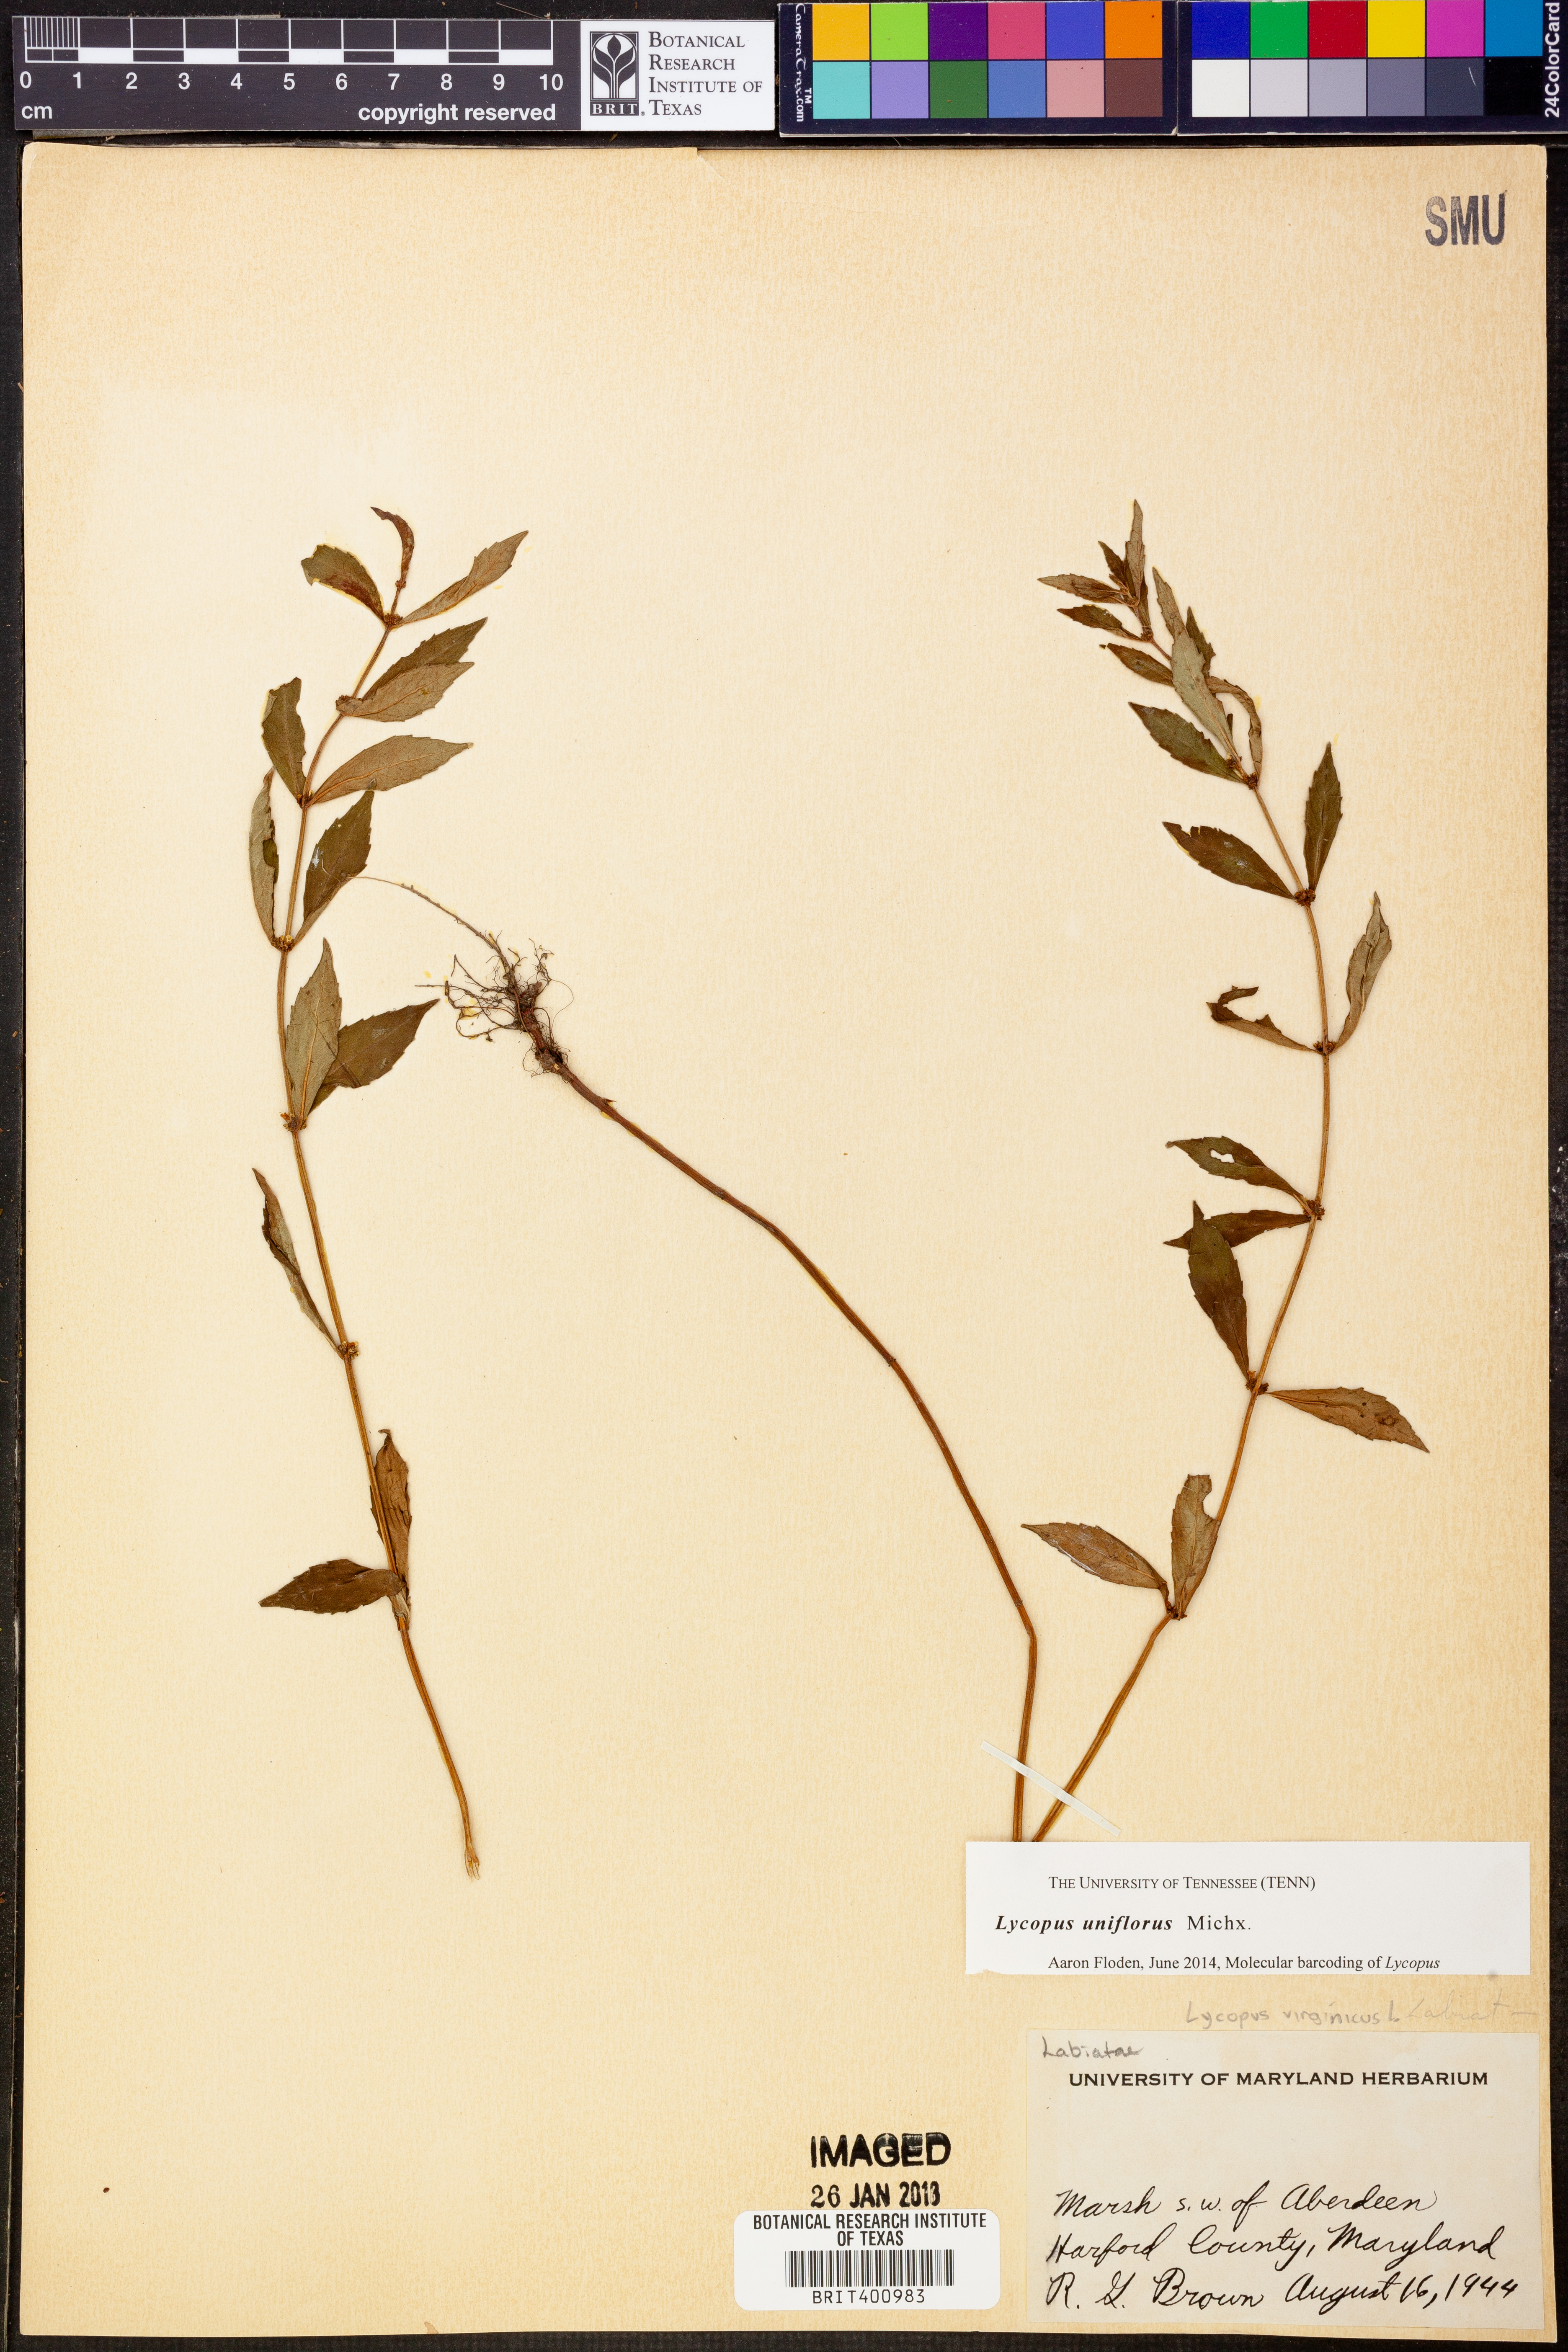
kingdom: Plantae
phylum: Tracheophyta
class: Magnoliopsida
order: Lamiales
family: Lamiaceae
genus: Lycopus
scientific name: Lycopus uniflorus
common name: Northern bugleweed
